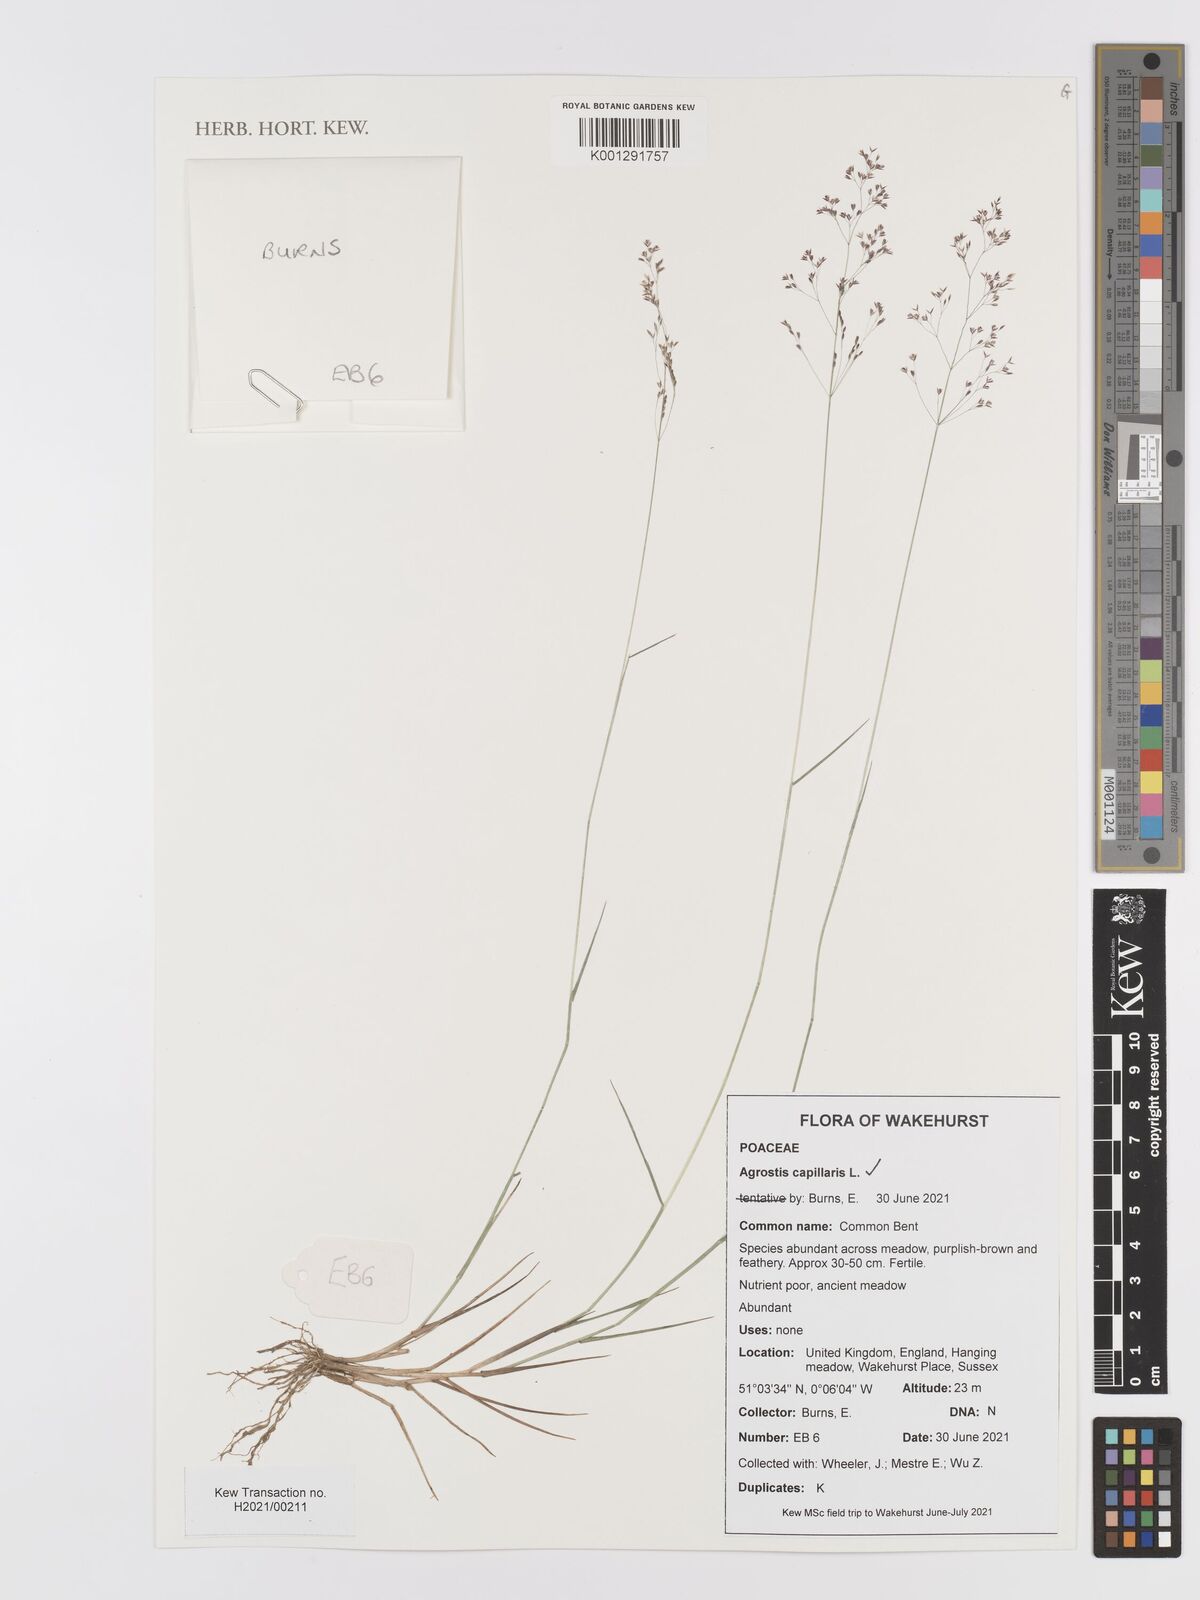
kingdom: Plantae
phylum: Tracheophyta
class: Liliopsida
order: Poales
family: Poaceae
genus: Agrostis
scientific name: Agrostis capillaris
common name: Colonial bentgrass
